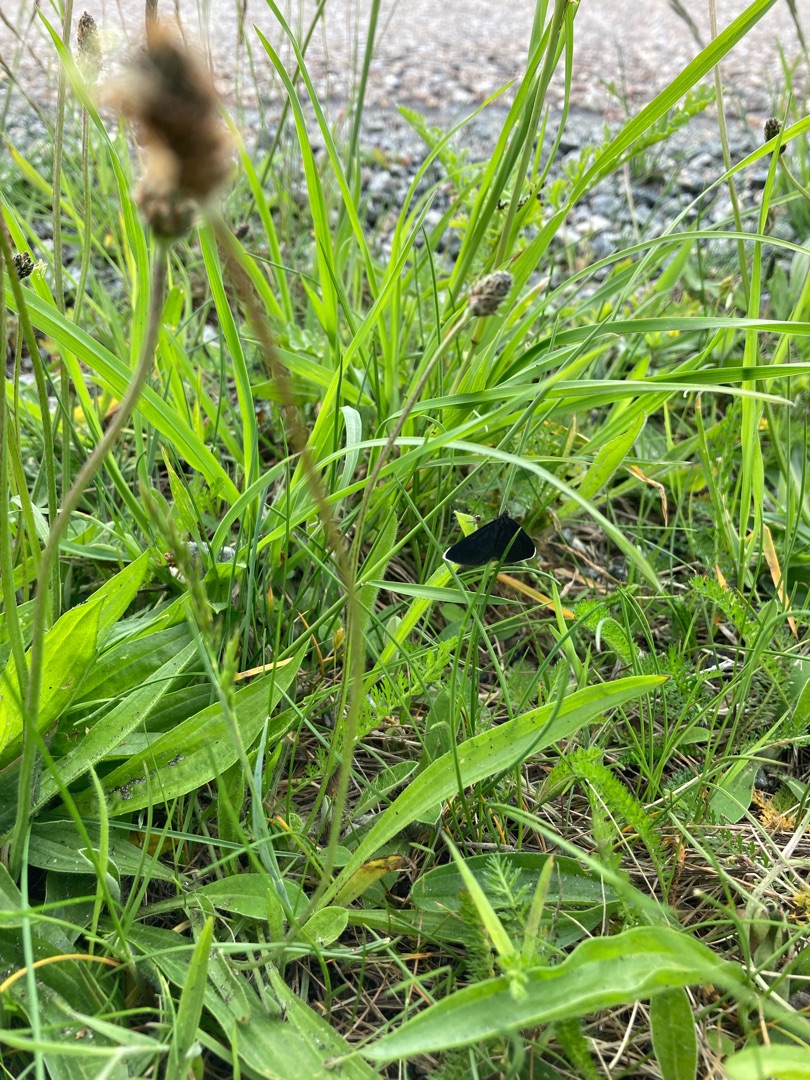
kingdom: Animalia
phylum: Arthropoda
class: Insecta
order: Lepidoptera
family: Geometridae
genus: Odezia
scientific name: Odezia atrata
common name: Sort måler
